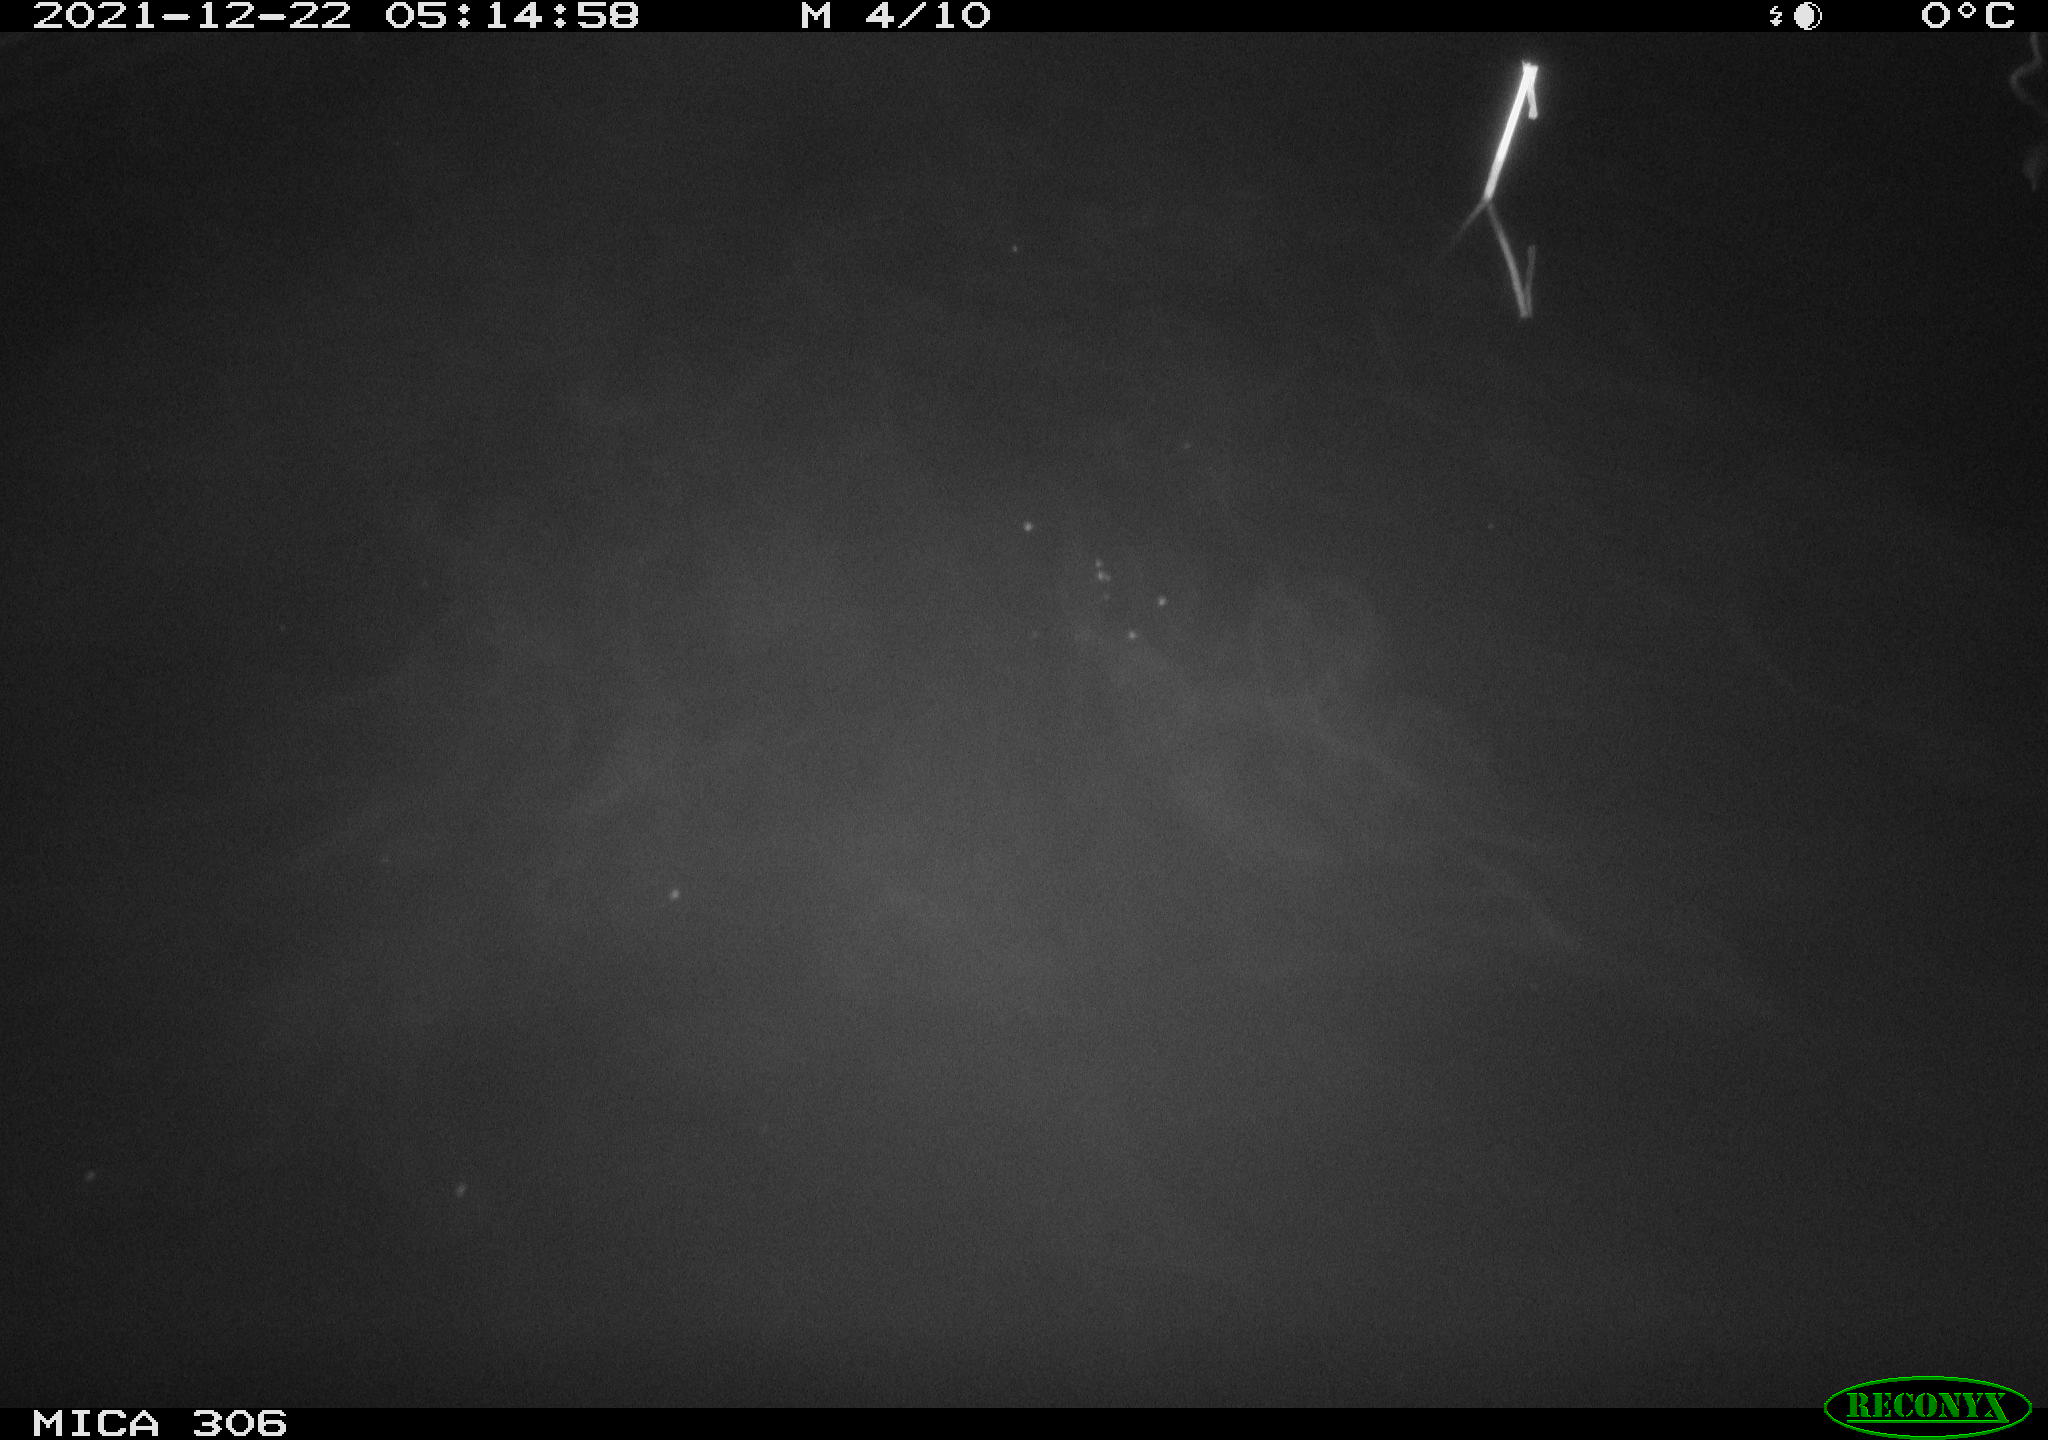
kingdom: Animalia
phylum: Chordata
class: Aves
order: Anseriformes
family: Anatidae
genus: Anas
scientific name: Anas
